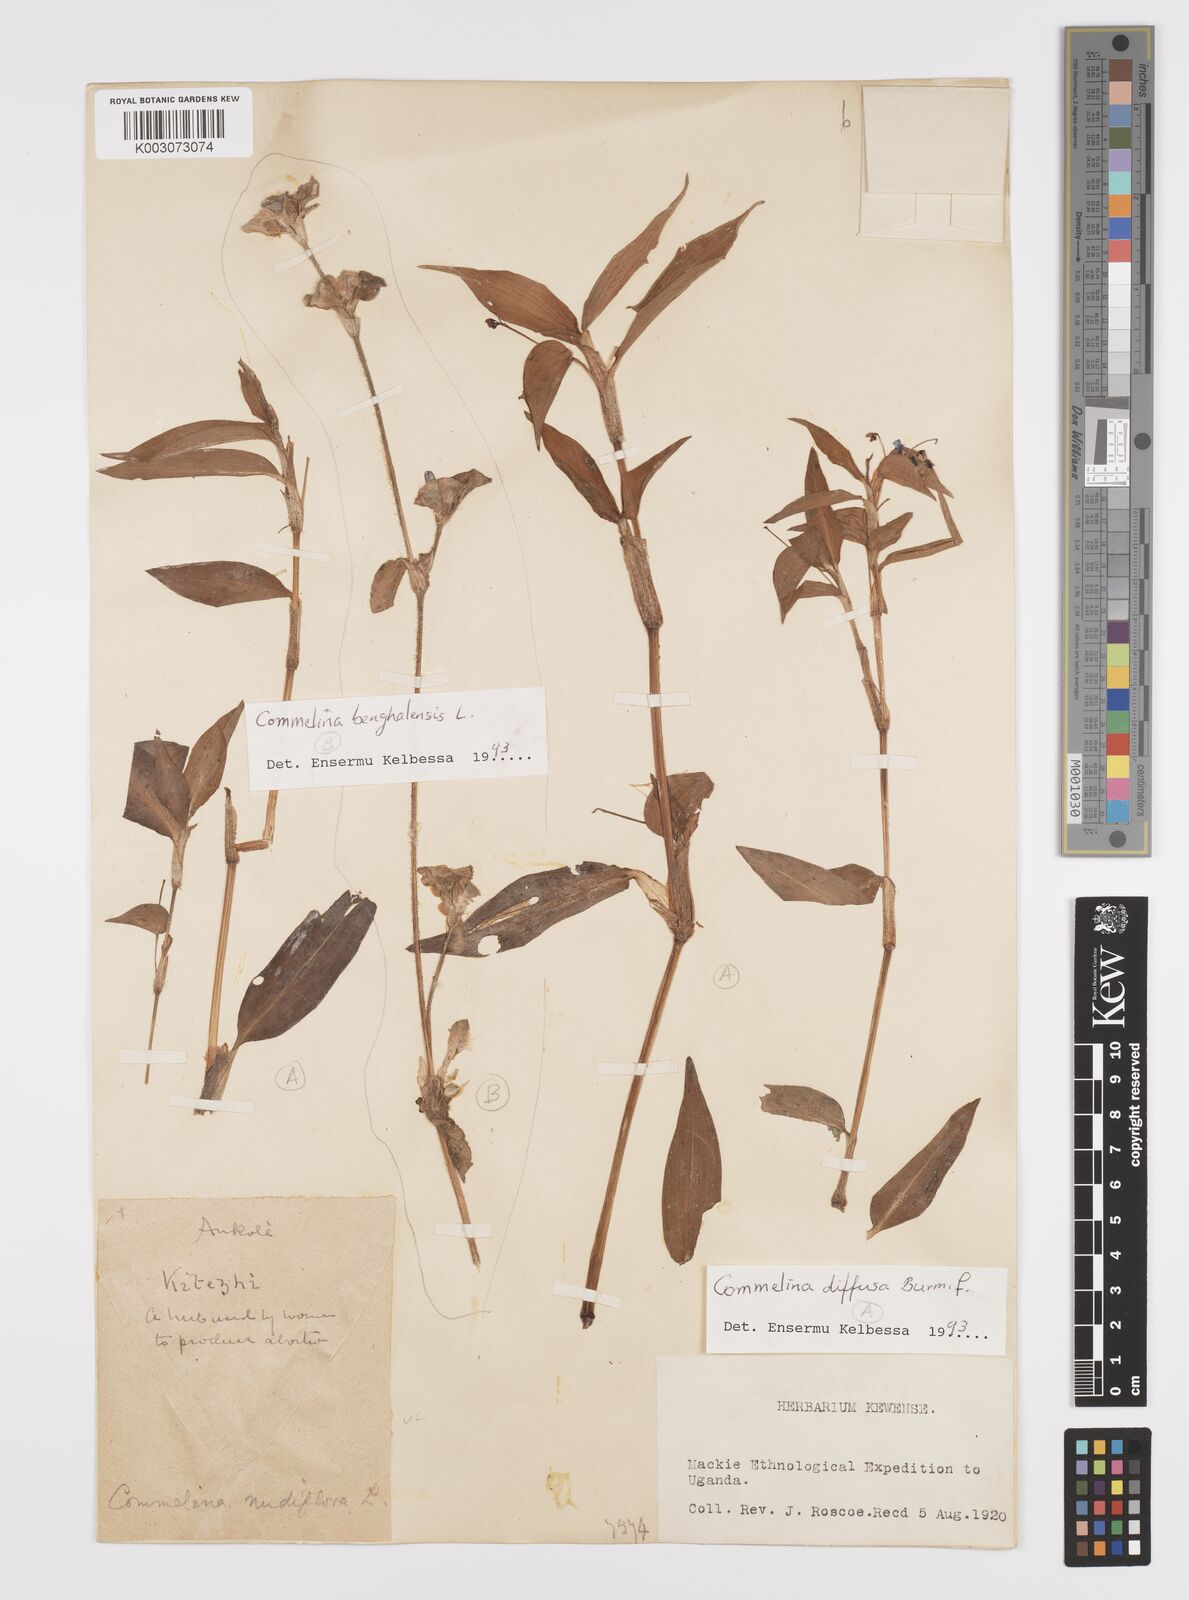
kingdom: Plantae
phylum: Tracheophyta
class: Liliopsida
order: Commelinales
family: Commelinaceae
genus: Commelina
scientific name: Commelina diffusa
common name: Climbing dayflower
